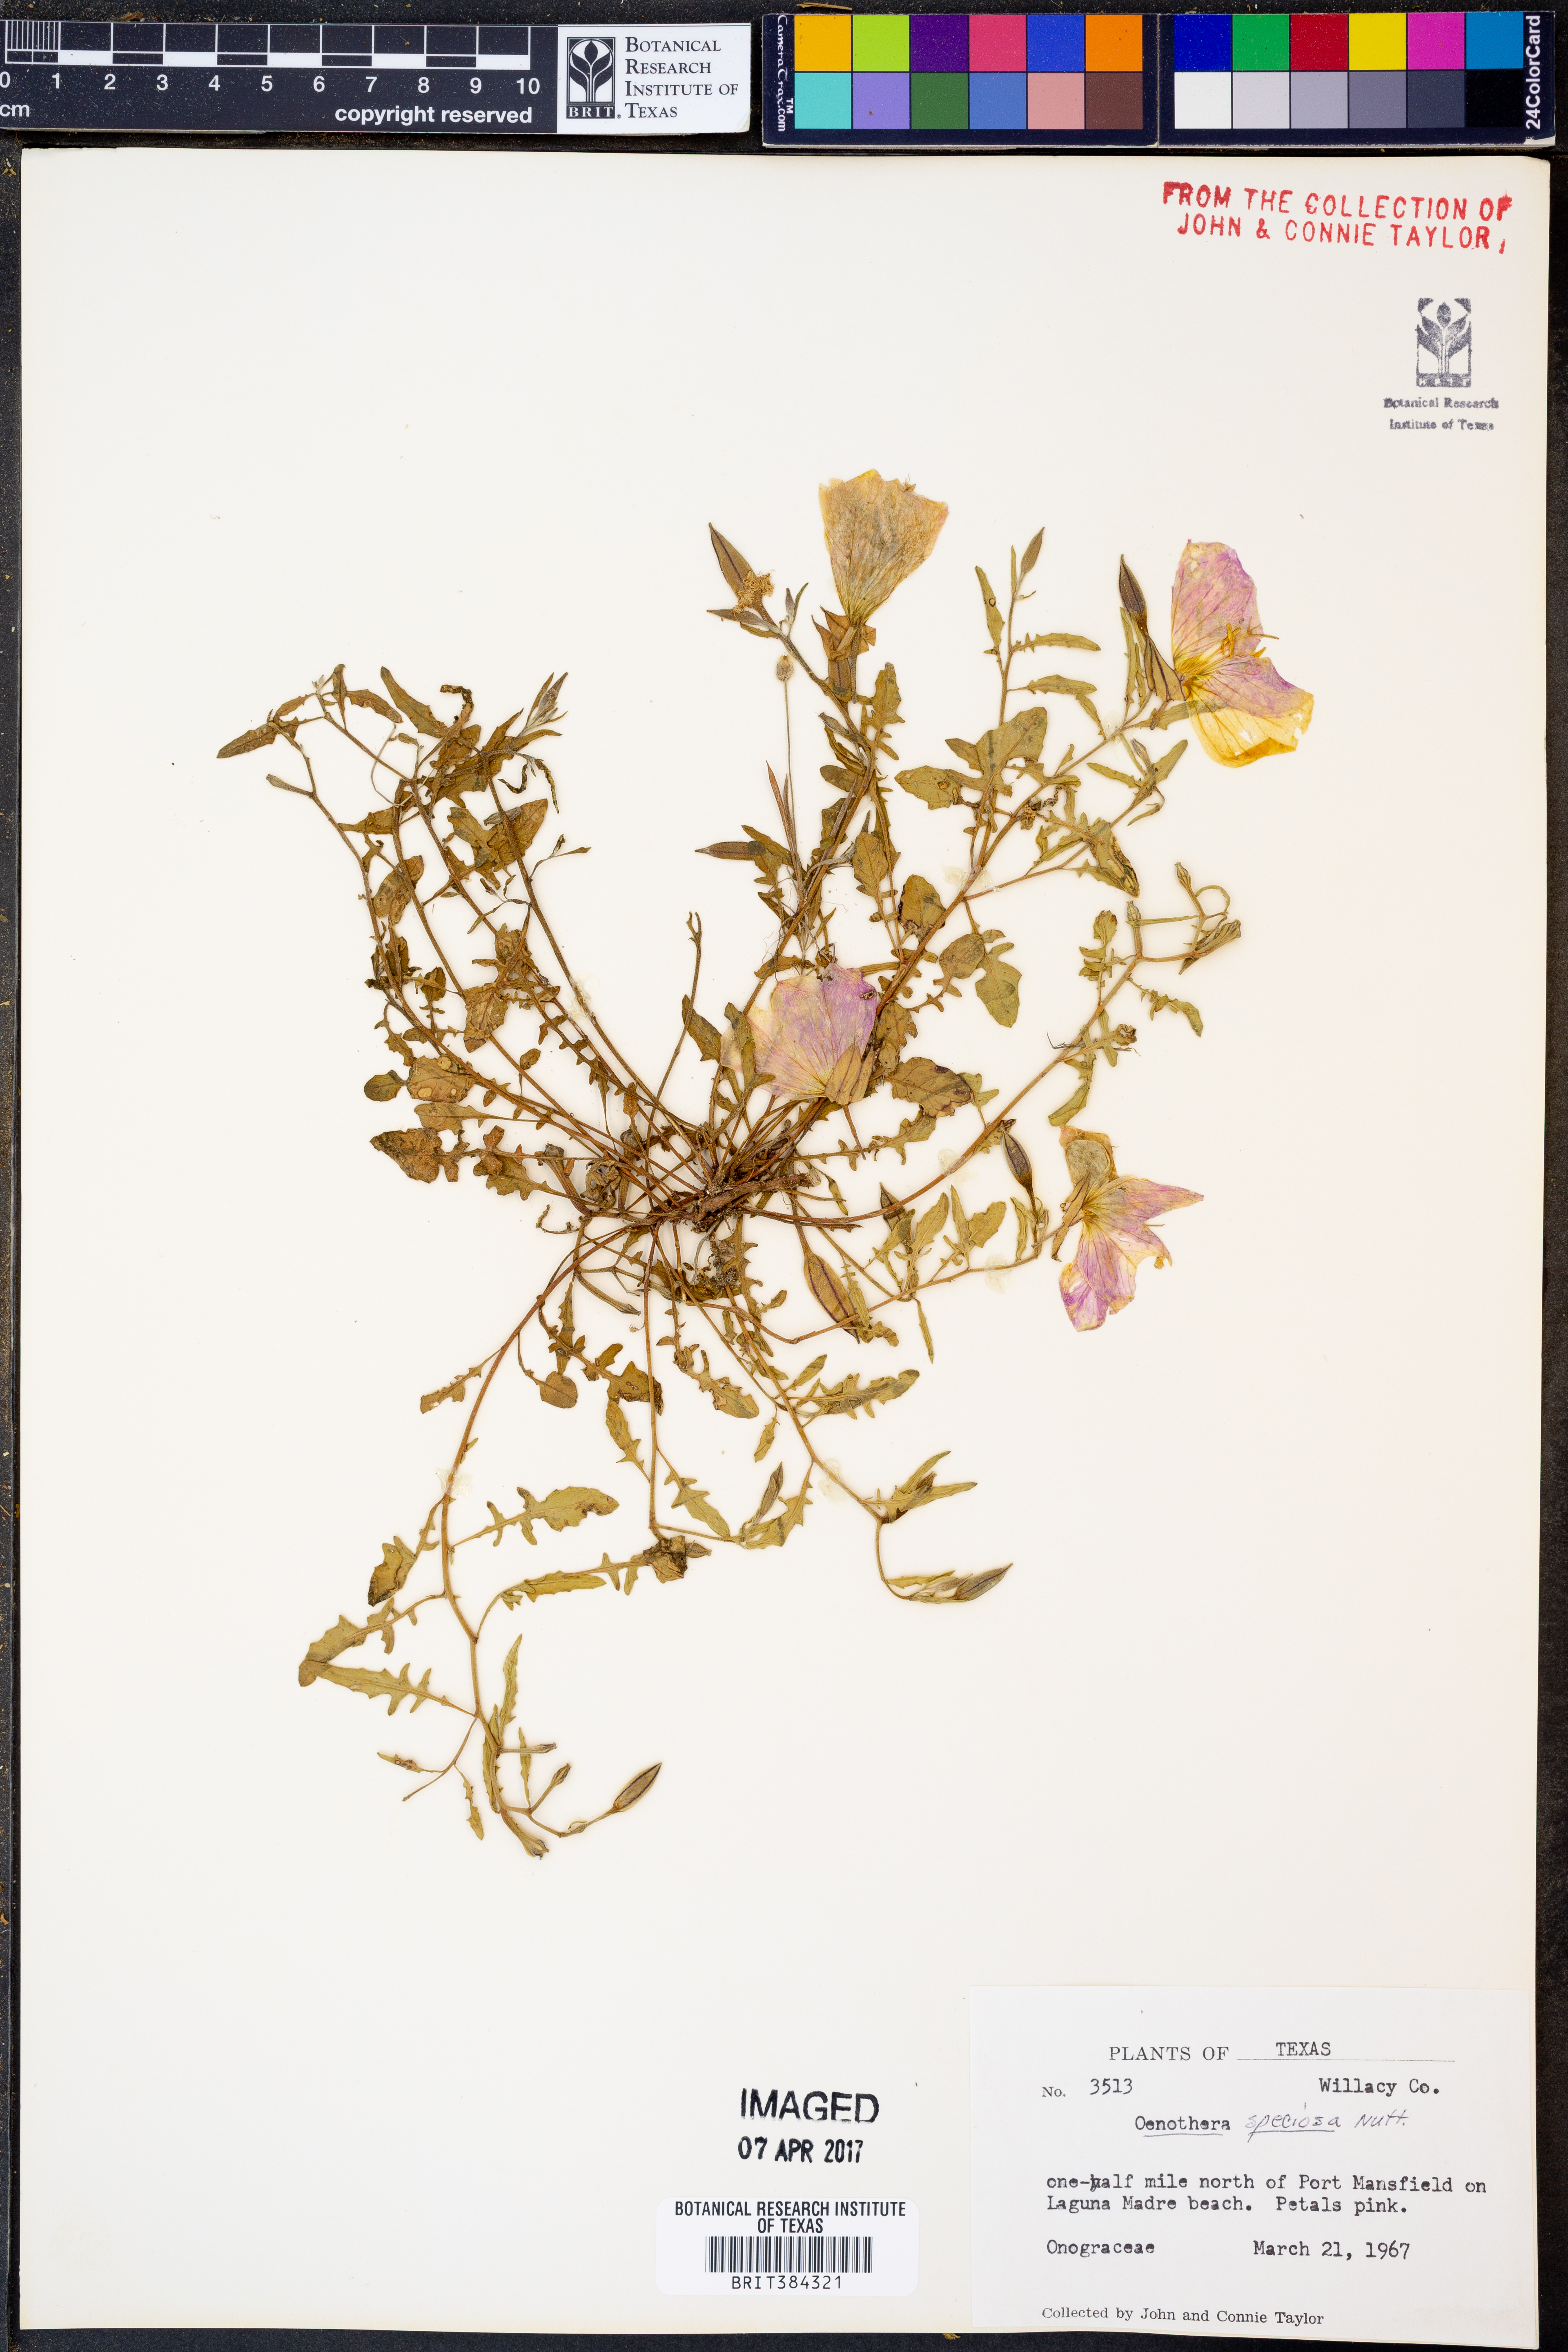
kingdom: Plantae
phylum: Tracheophyta
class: Magnoliopsida
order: Myrtales
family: Onagraceae
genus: Oenothera
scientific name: Oenothera speciosa
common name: White evening-primrose
